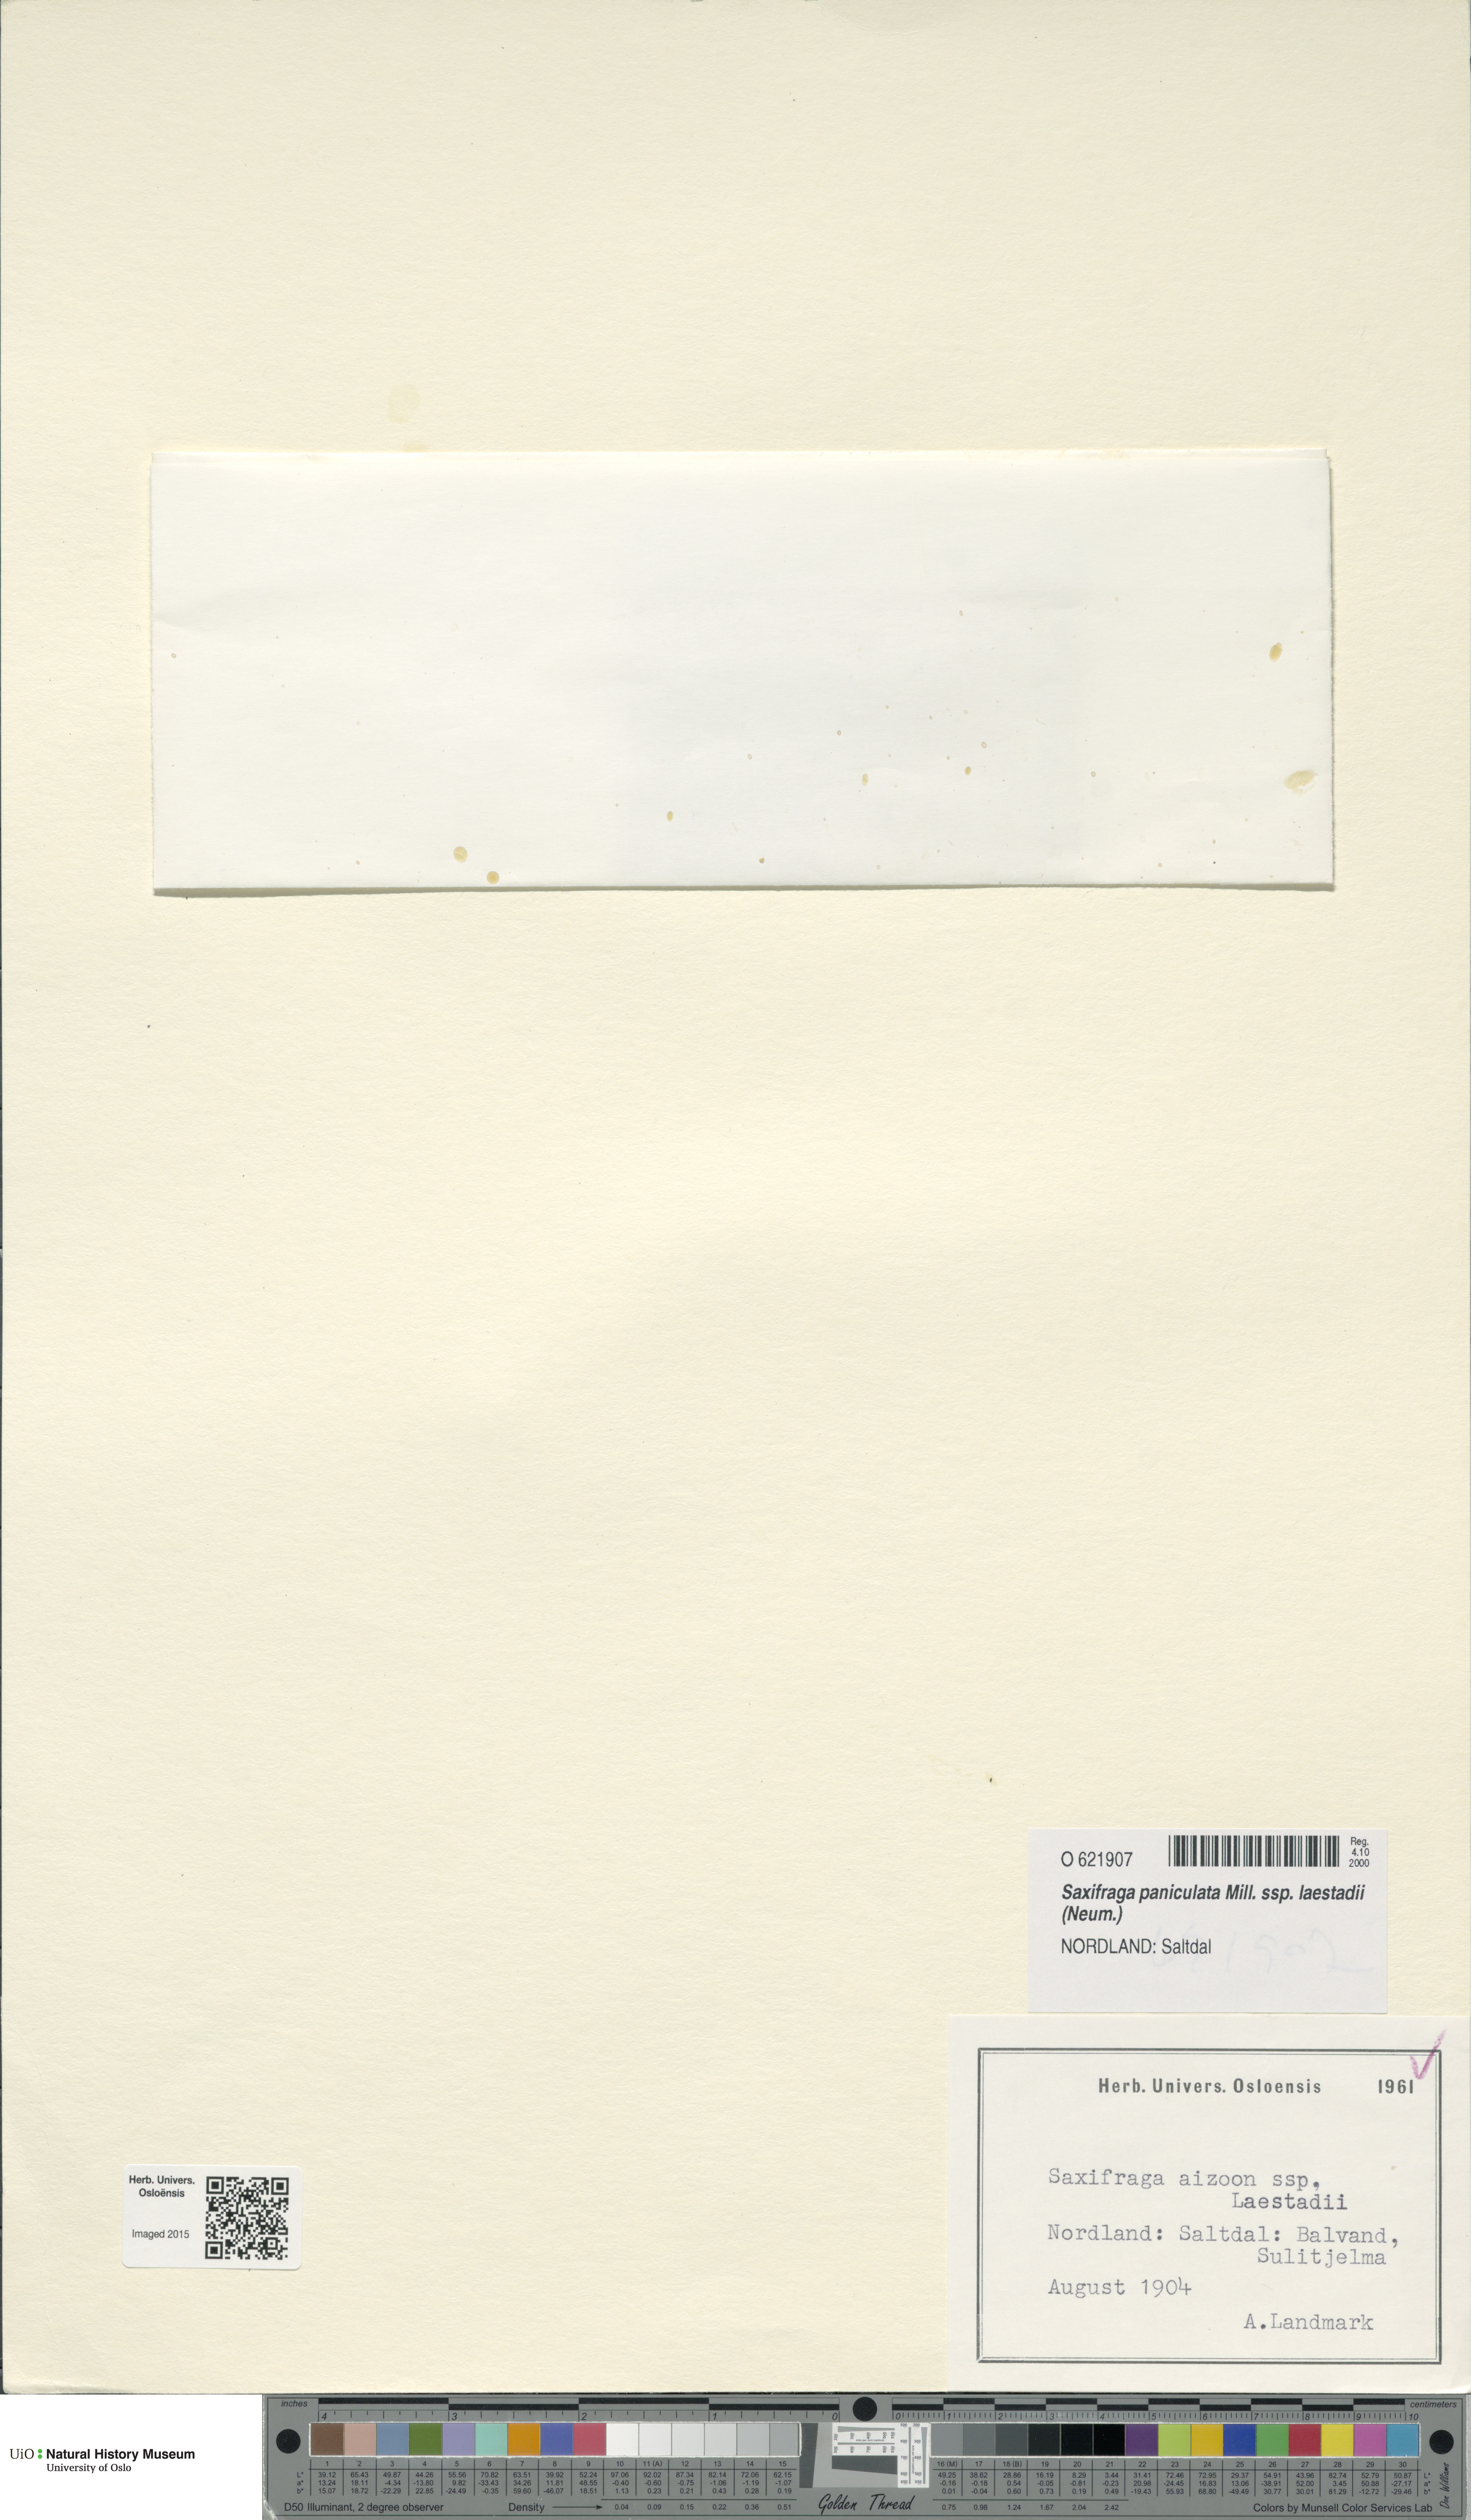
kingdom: Plantae
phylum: Tracheophyta
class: Magnoliopsida
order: Saxifragales
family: Saxifragaceae
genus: Saxifraga
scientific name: Saxifraga paniculata
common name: Livelong saxifrage
